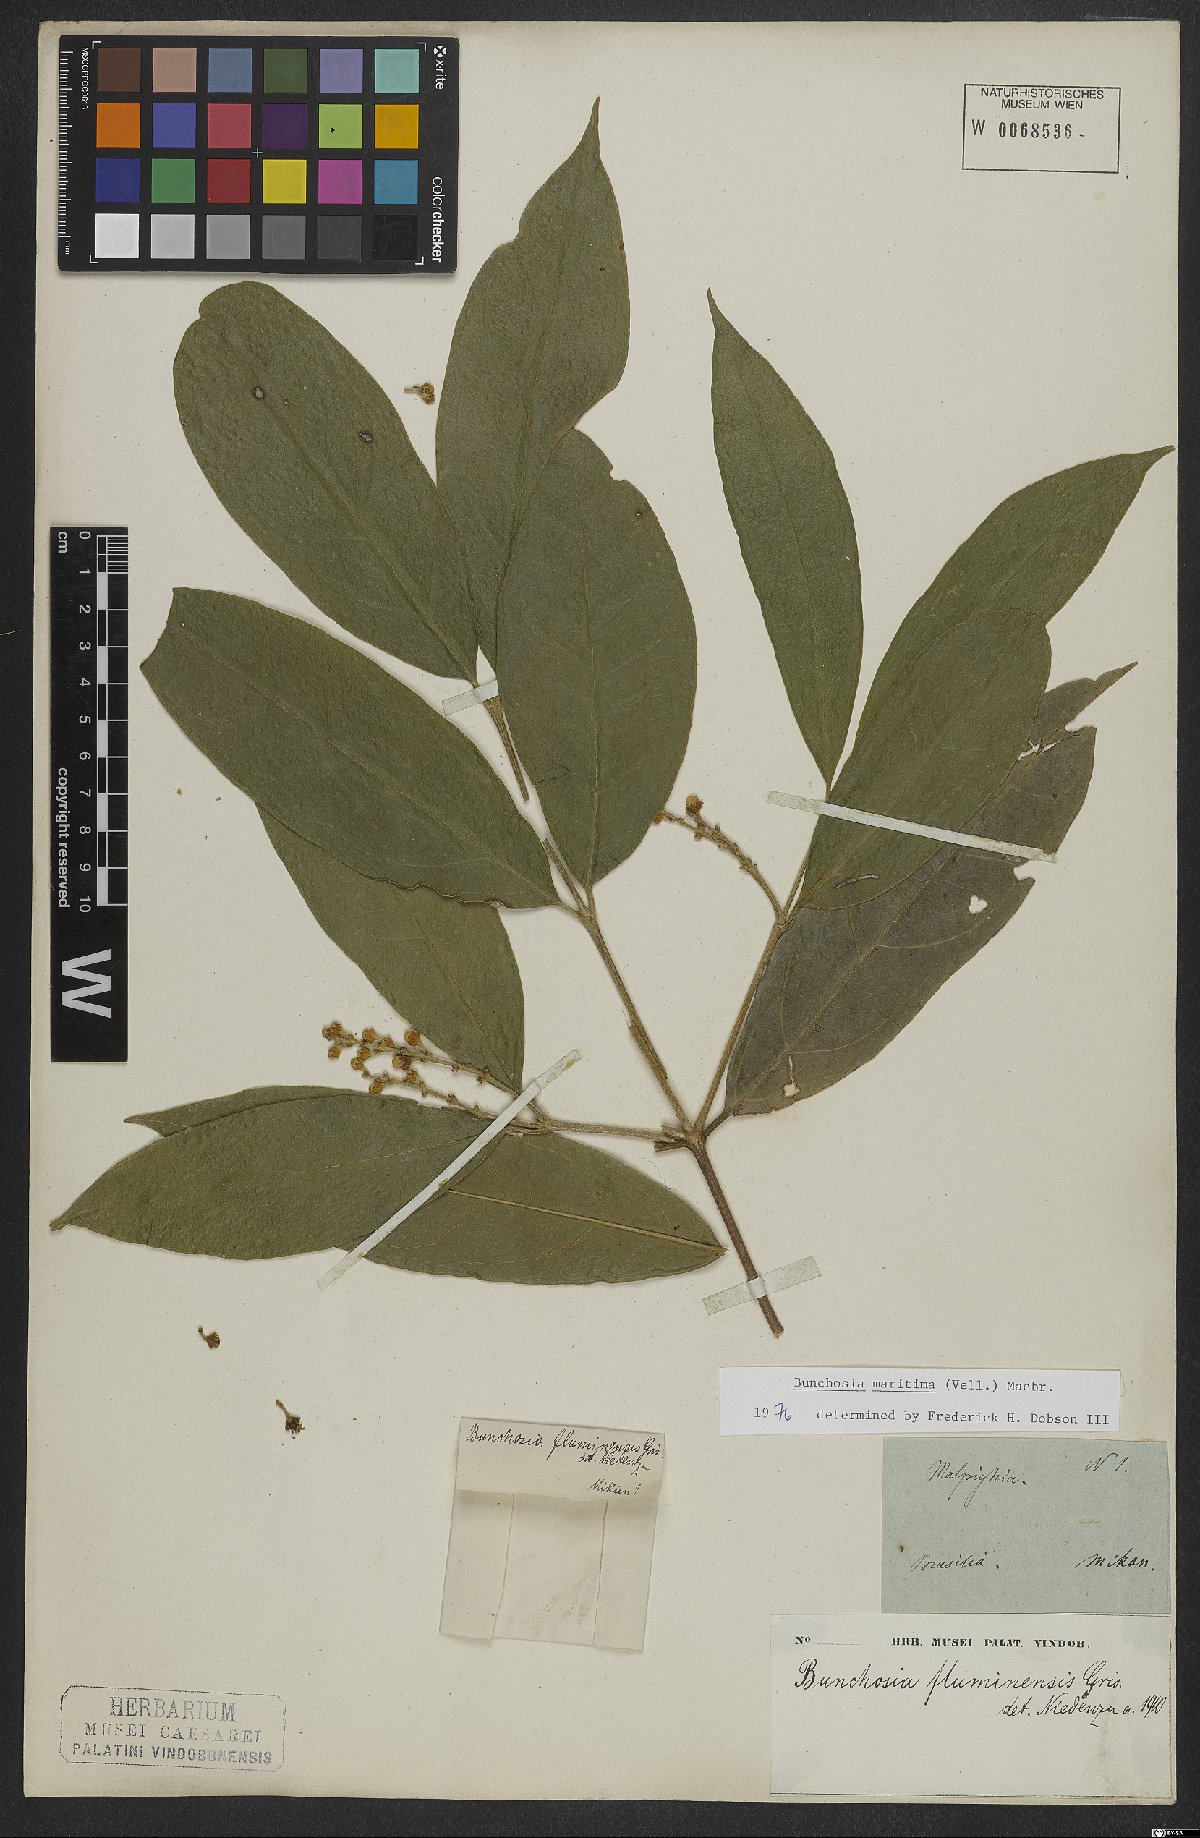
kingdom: Plantae
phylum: Tracheophyta
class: Magnoliopsida
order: Malpighiales
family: Malpighiaceae
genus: Bunchosia
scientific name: Bunchosia maritima
